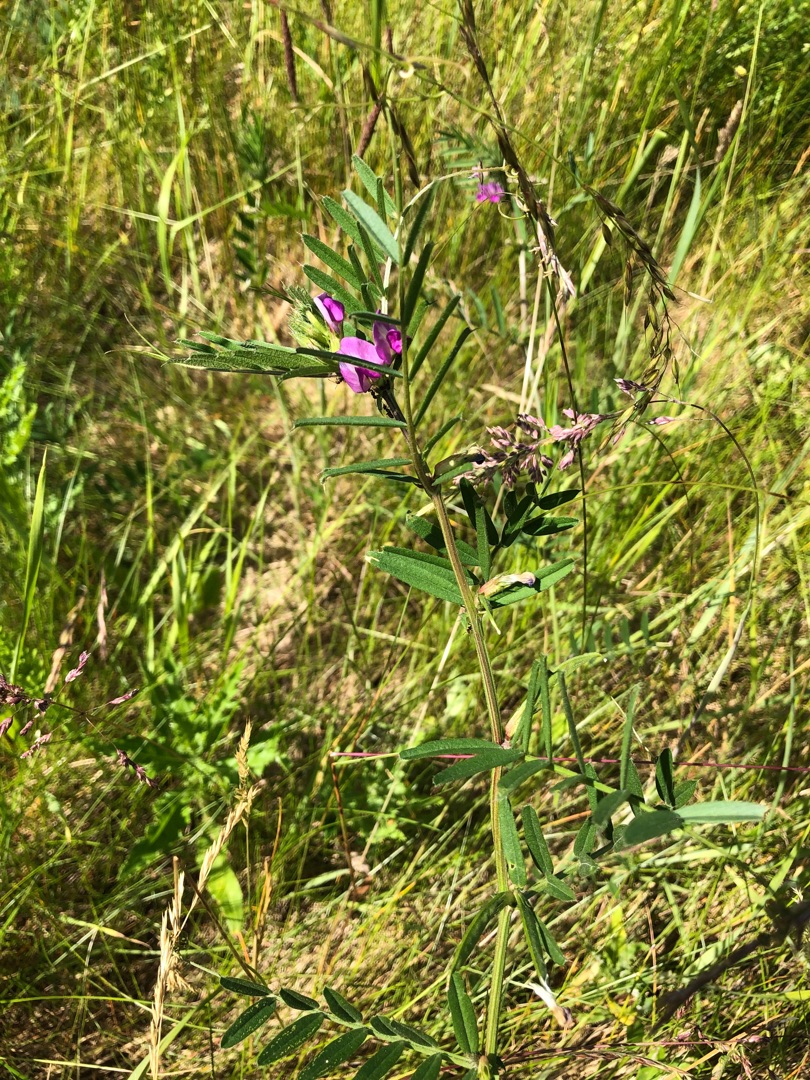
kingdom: Plantae
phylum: Tracheophyta
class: Magnoliopsida
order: Fabales
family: Fabaceae
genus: Vicia
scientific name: Vicia sativa
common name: Foder-vikke
